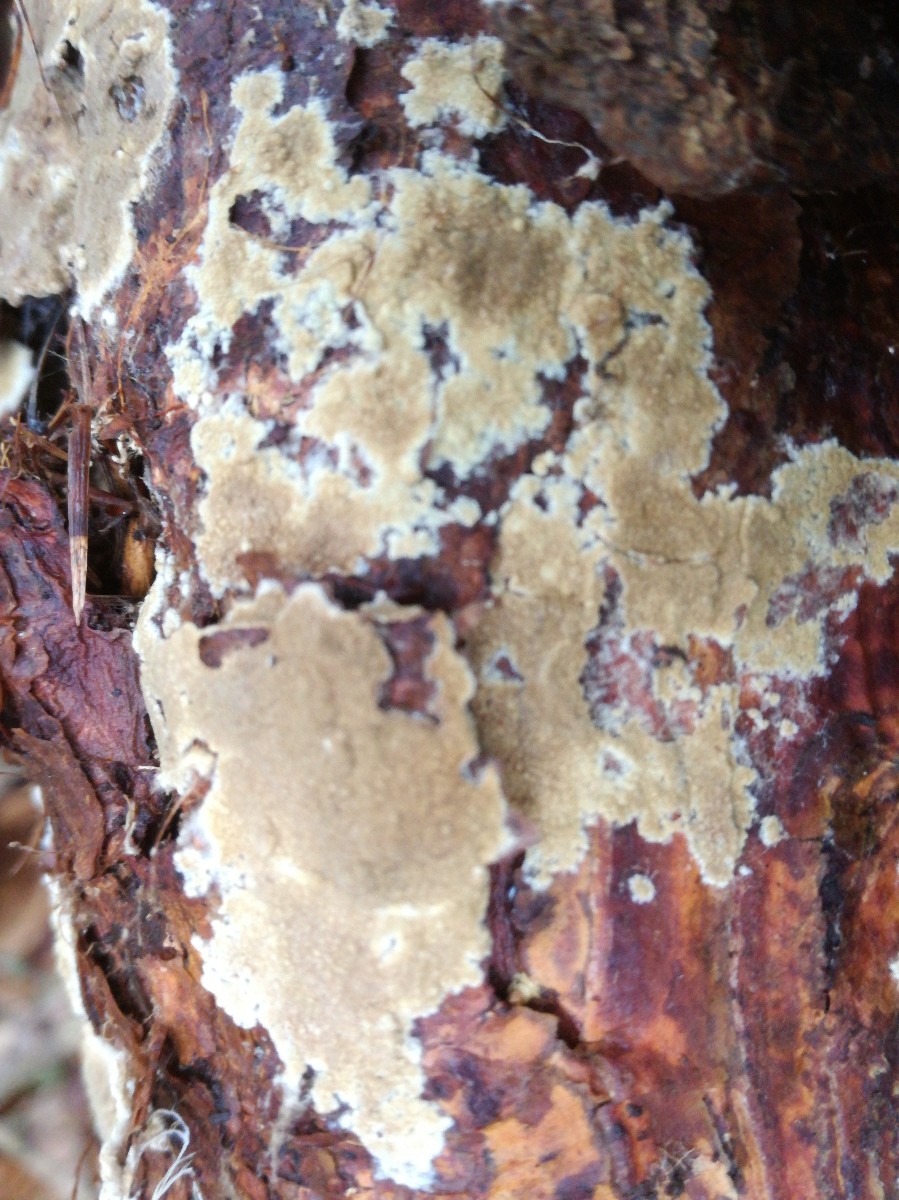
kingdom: Fungi
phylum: Basidiomycota
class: Agaricomycetes
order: Boletales
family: Coniophoraceae
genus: Coniophora
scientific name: Coniophora arida
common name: tynd tømmersvamp
